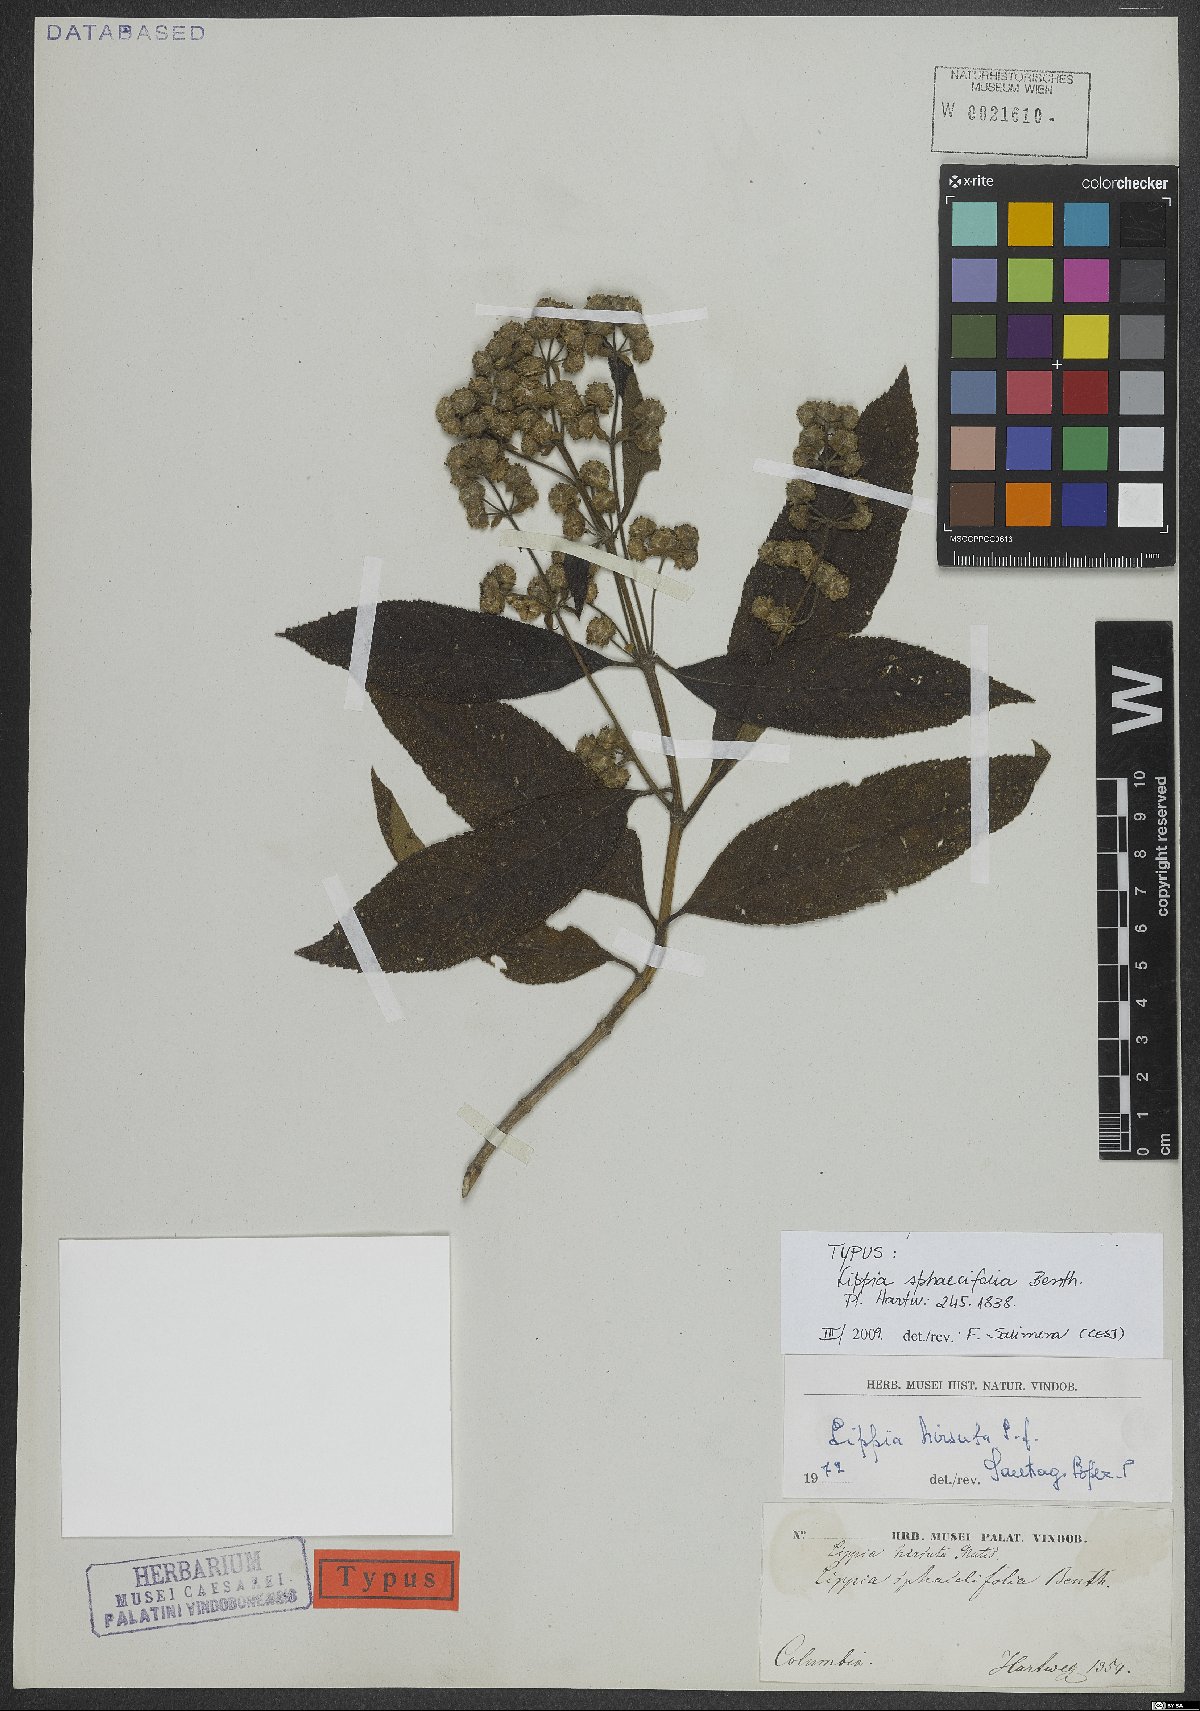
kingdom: Plantae
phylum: Tracheophyta
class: Magnoliopsida
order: Lamiales
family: Verbenaceae
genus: Lippia
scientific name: Lippia hirsuta
